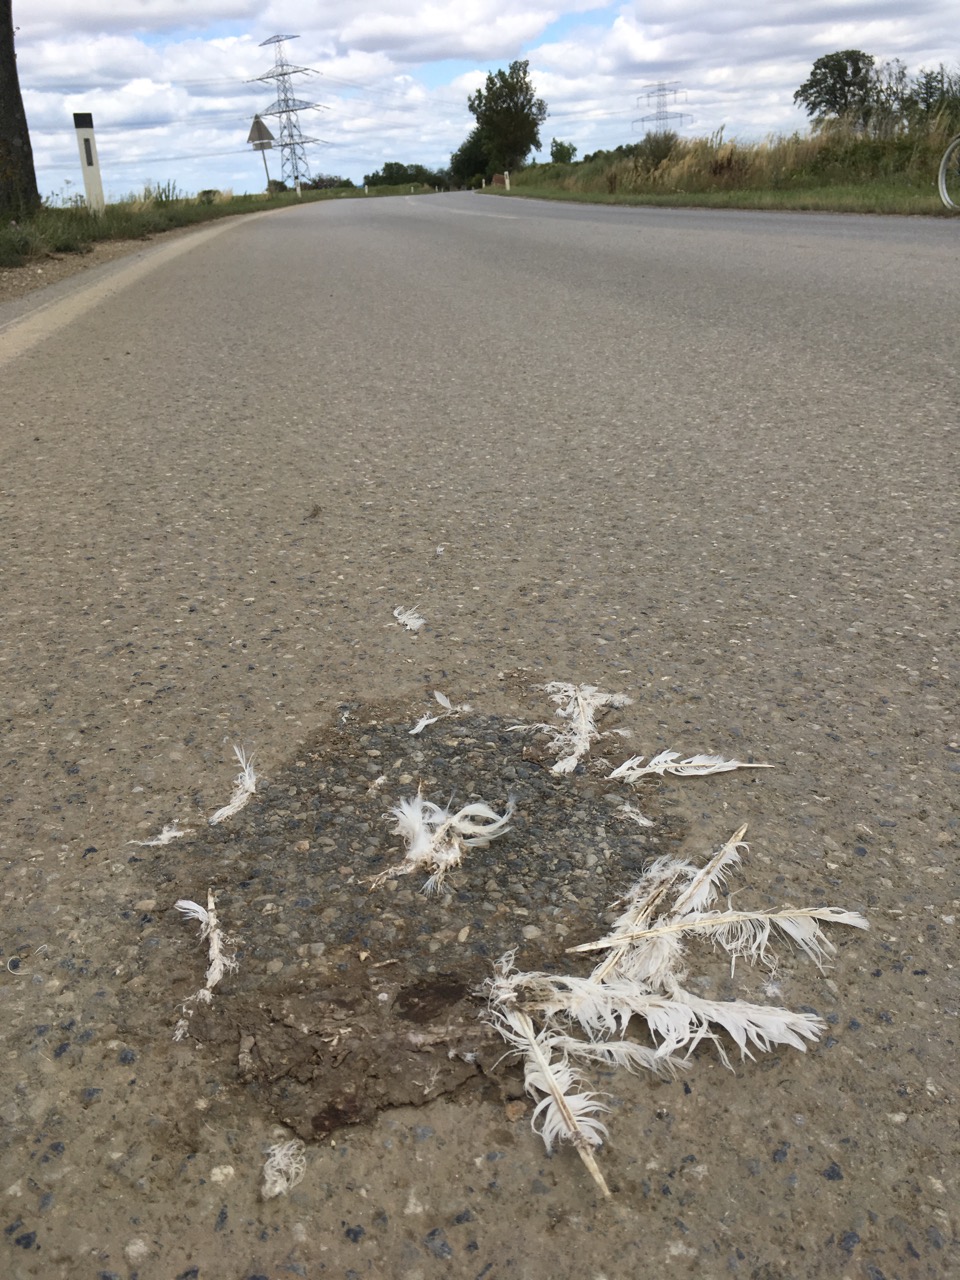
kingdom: Animalia
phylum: Chordata
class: Aves
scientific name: Aves
